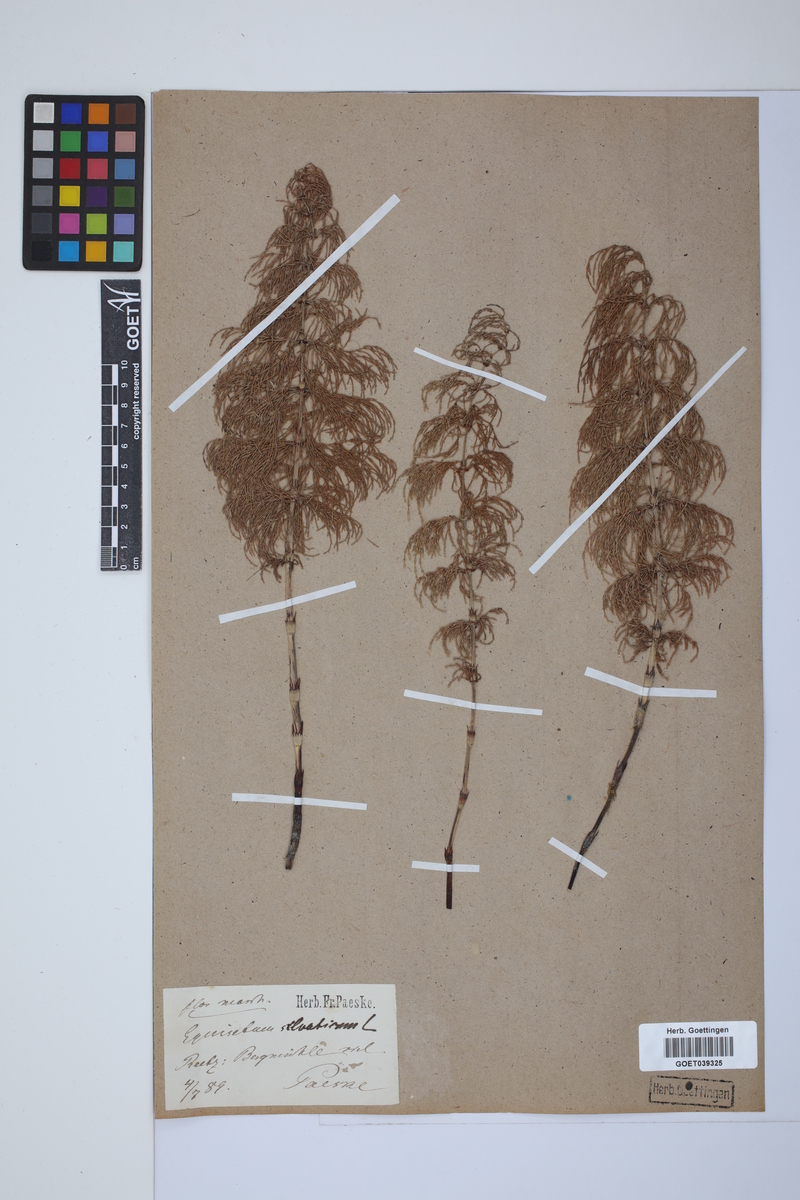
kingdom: Plantae
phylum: Tracheophyta
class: Polypodiopsida
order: Equisetales
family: Equisetaceae
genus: Equisetum
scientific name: Equisetum sylvaticum
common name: Wood horsetail
